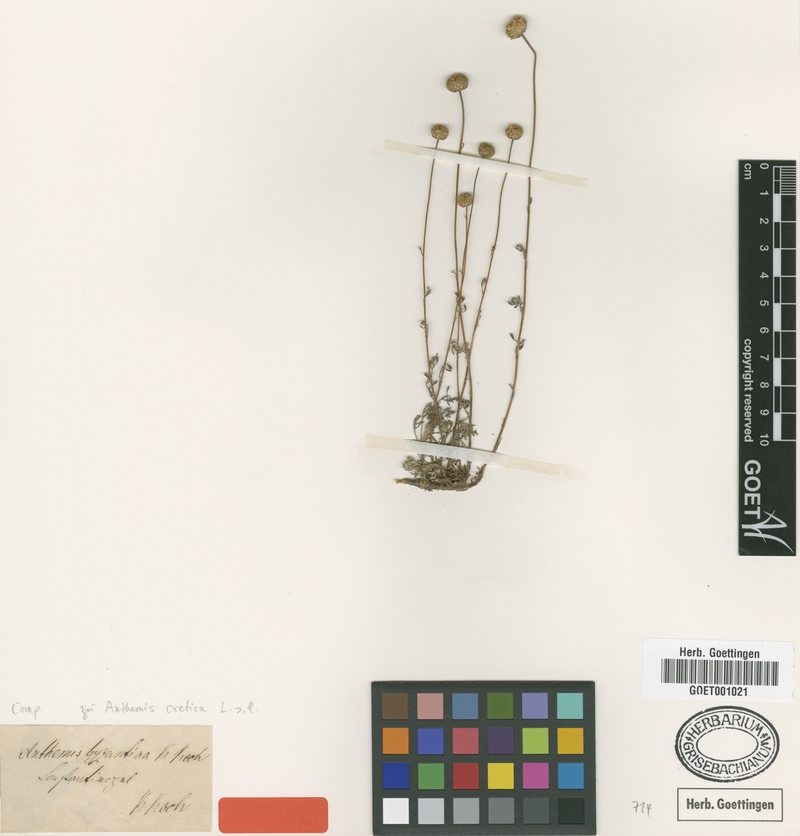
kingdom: Plantae
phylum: Tracheophyta
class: Magnoliopsida
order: Asterales
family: Asteraceae
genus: Anthemis
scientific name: Anthemis cretica
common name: Mountain dog-daisy
